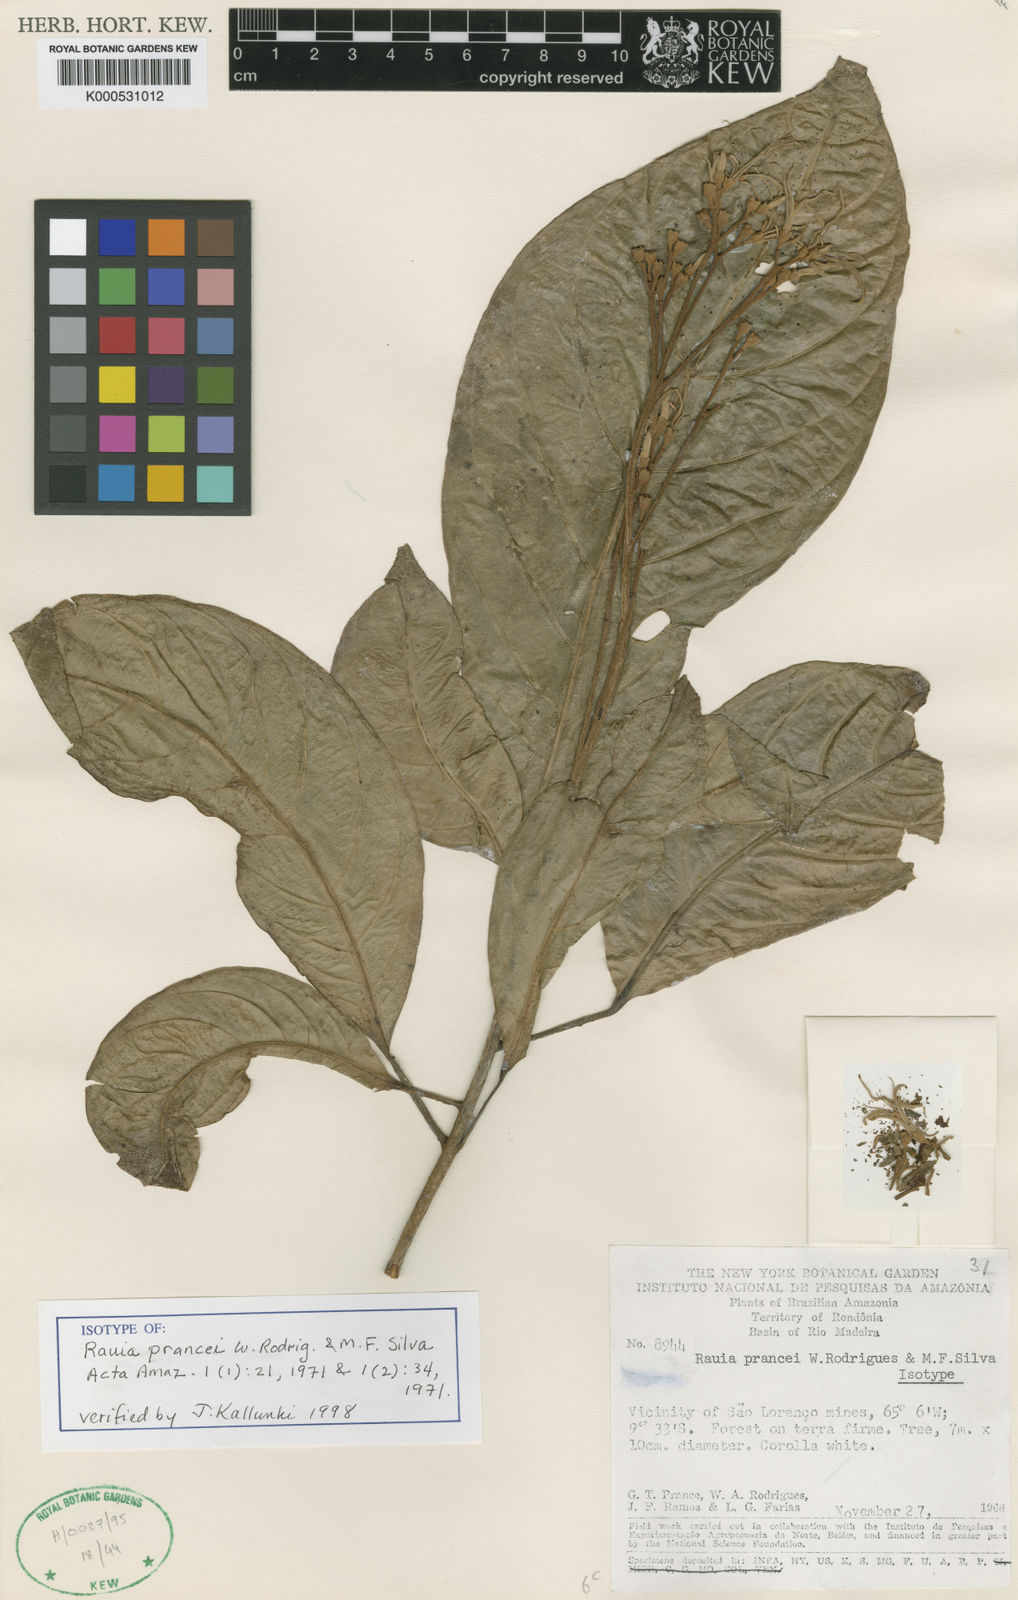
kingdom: Plantae
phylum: Tracheophyta
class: Magnoliopsida
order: Sapindales
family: Rutaceae
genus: Rauia
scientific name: Rauia resinosa
